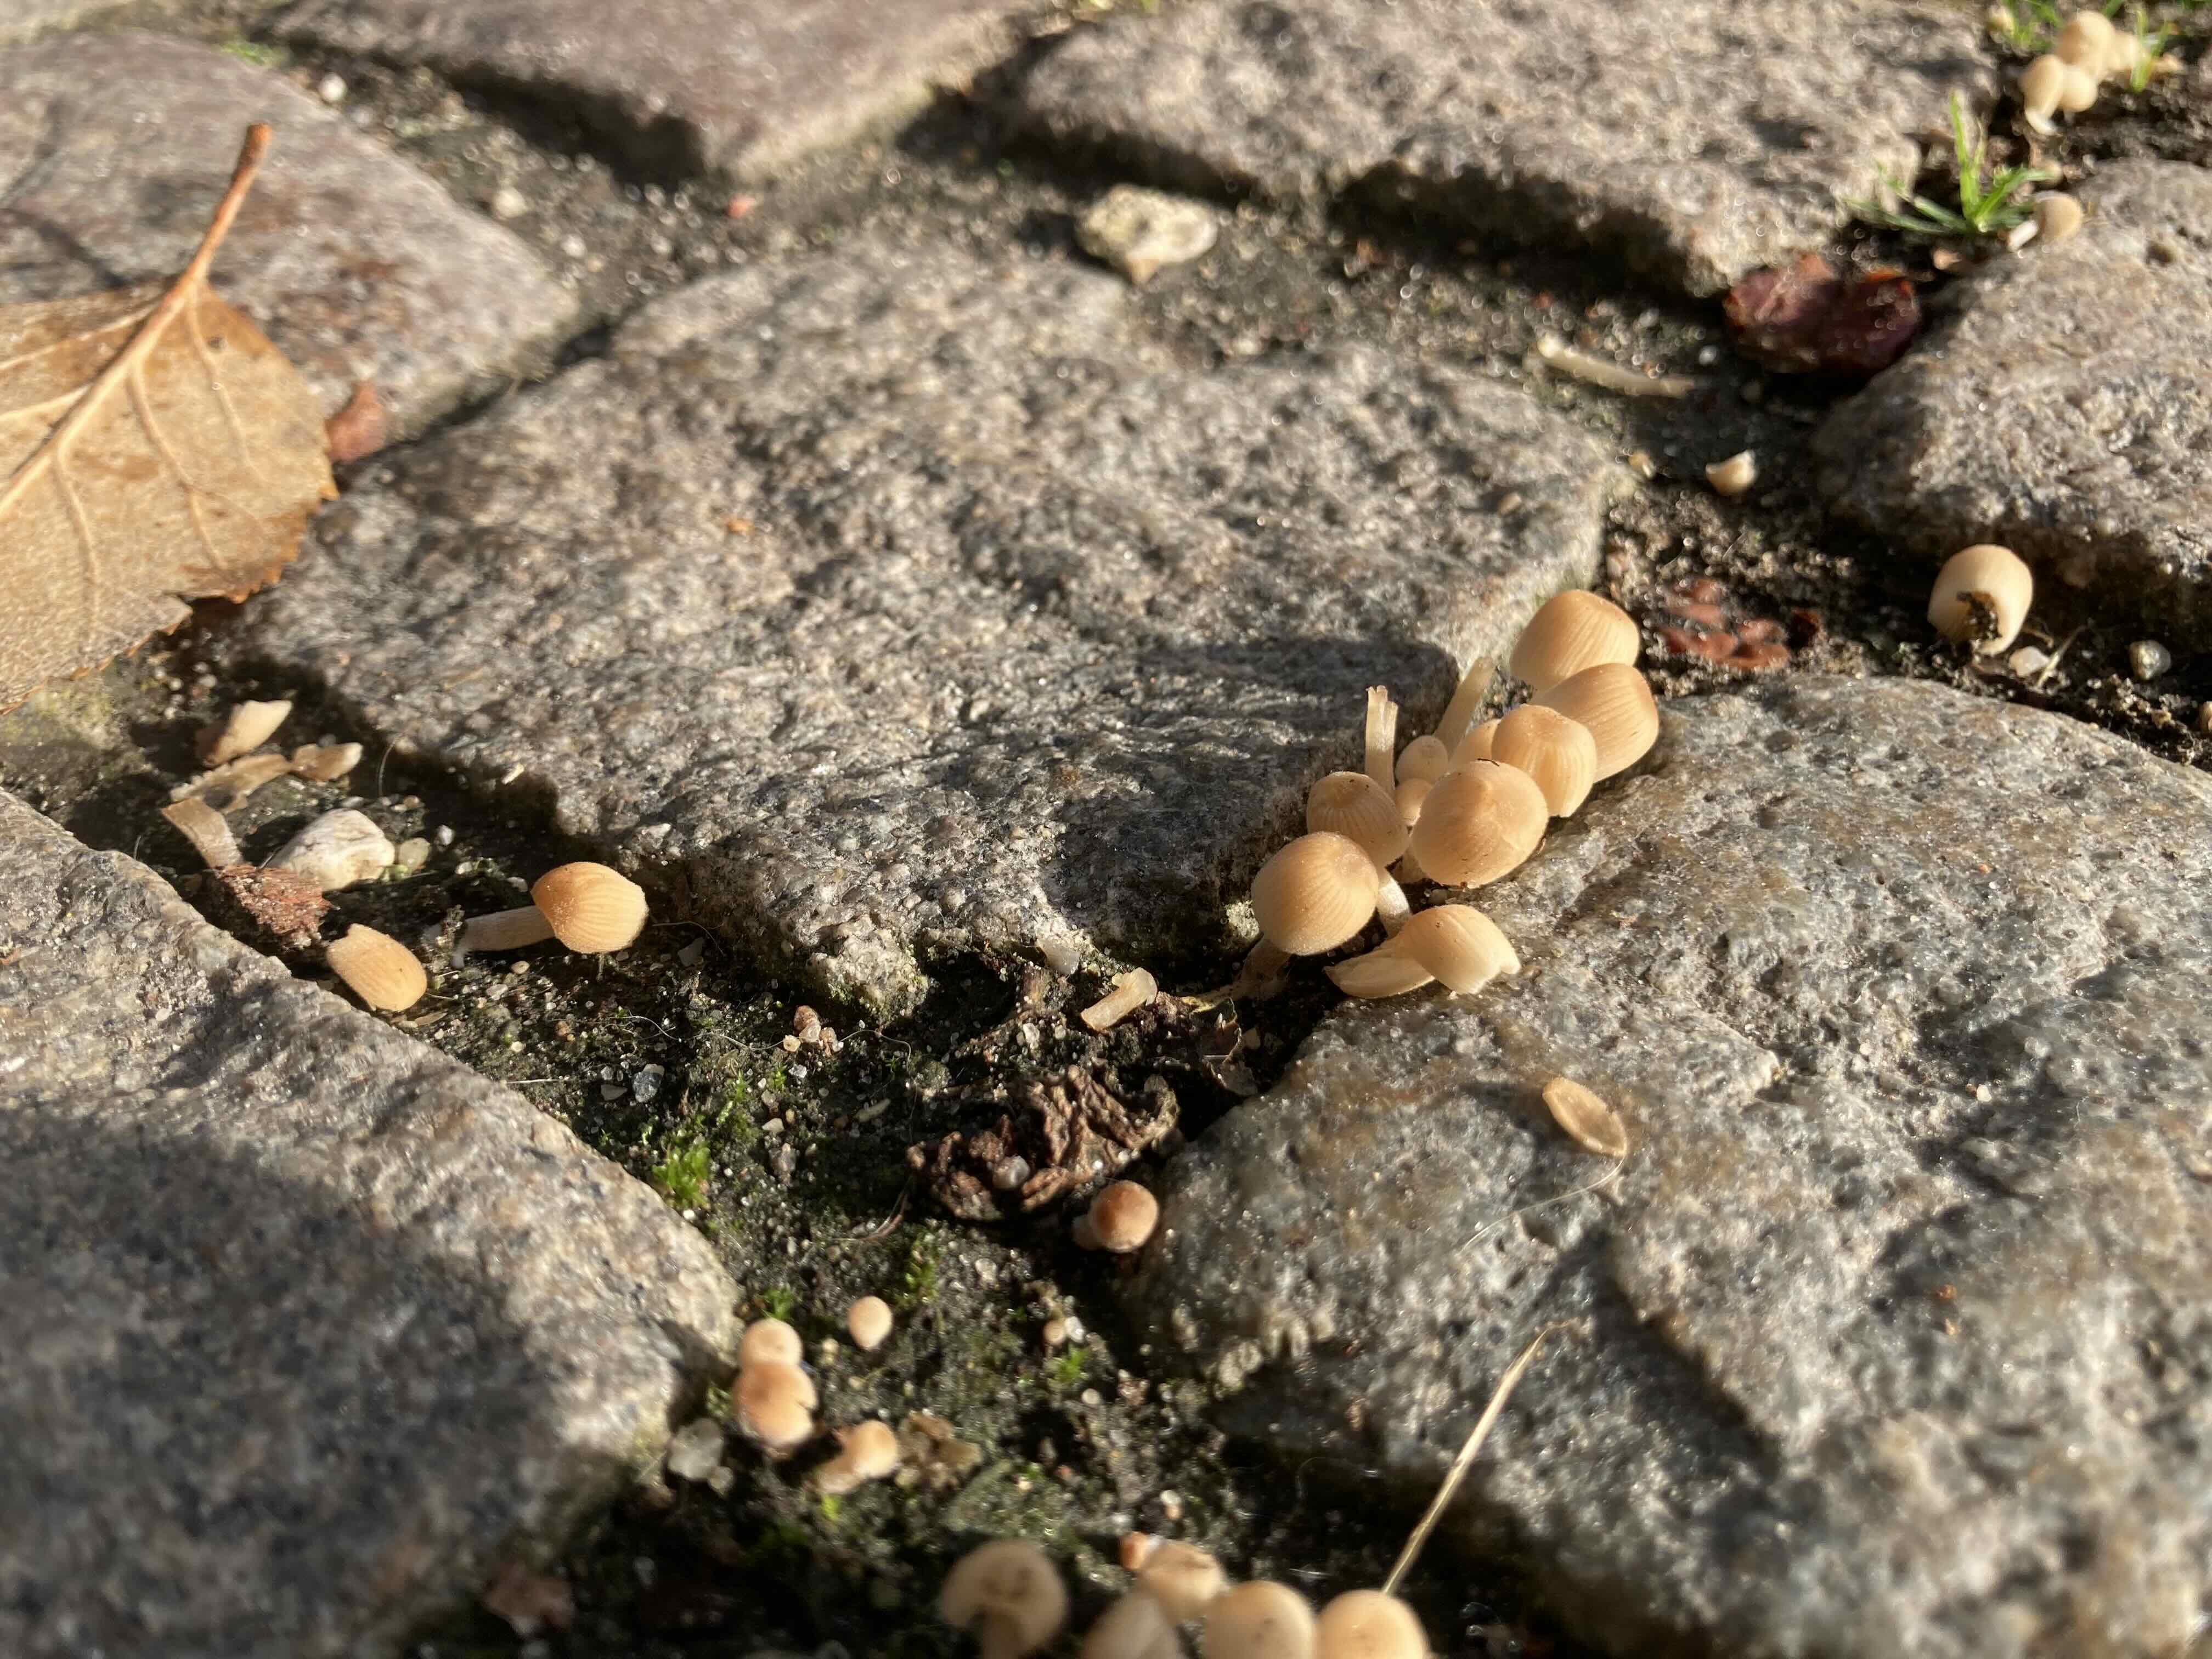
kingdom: Fungi
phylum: Basidiomycota
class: Agaricomycetes
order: Agaricales
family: Psathyrellaceae
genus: Coprinellus
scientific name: Coprinellus disseminatus
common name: bredsået blækhat
